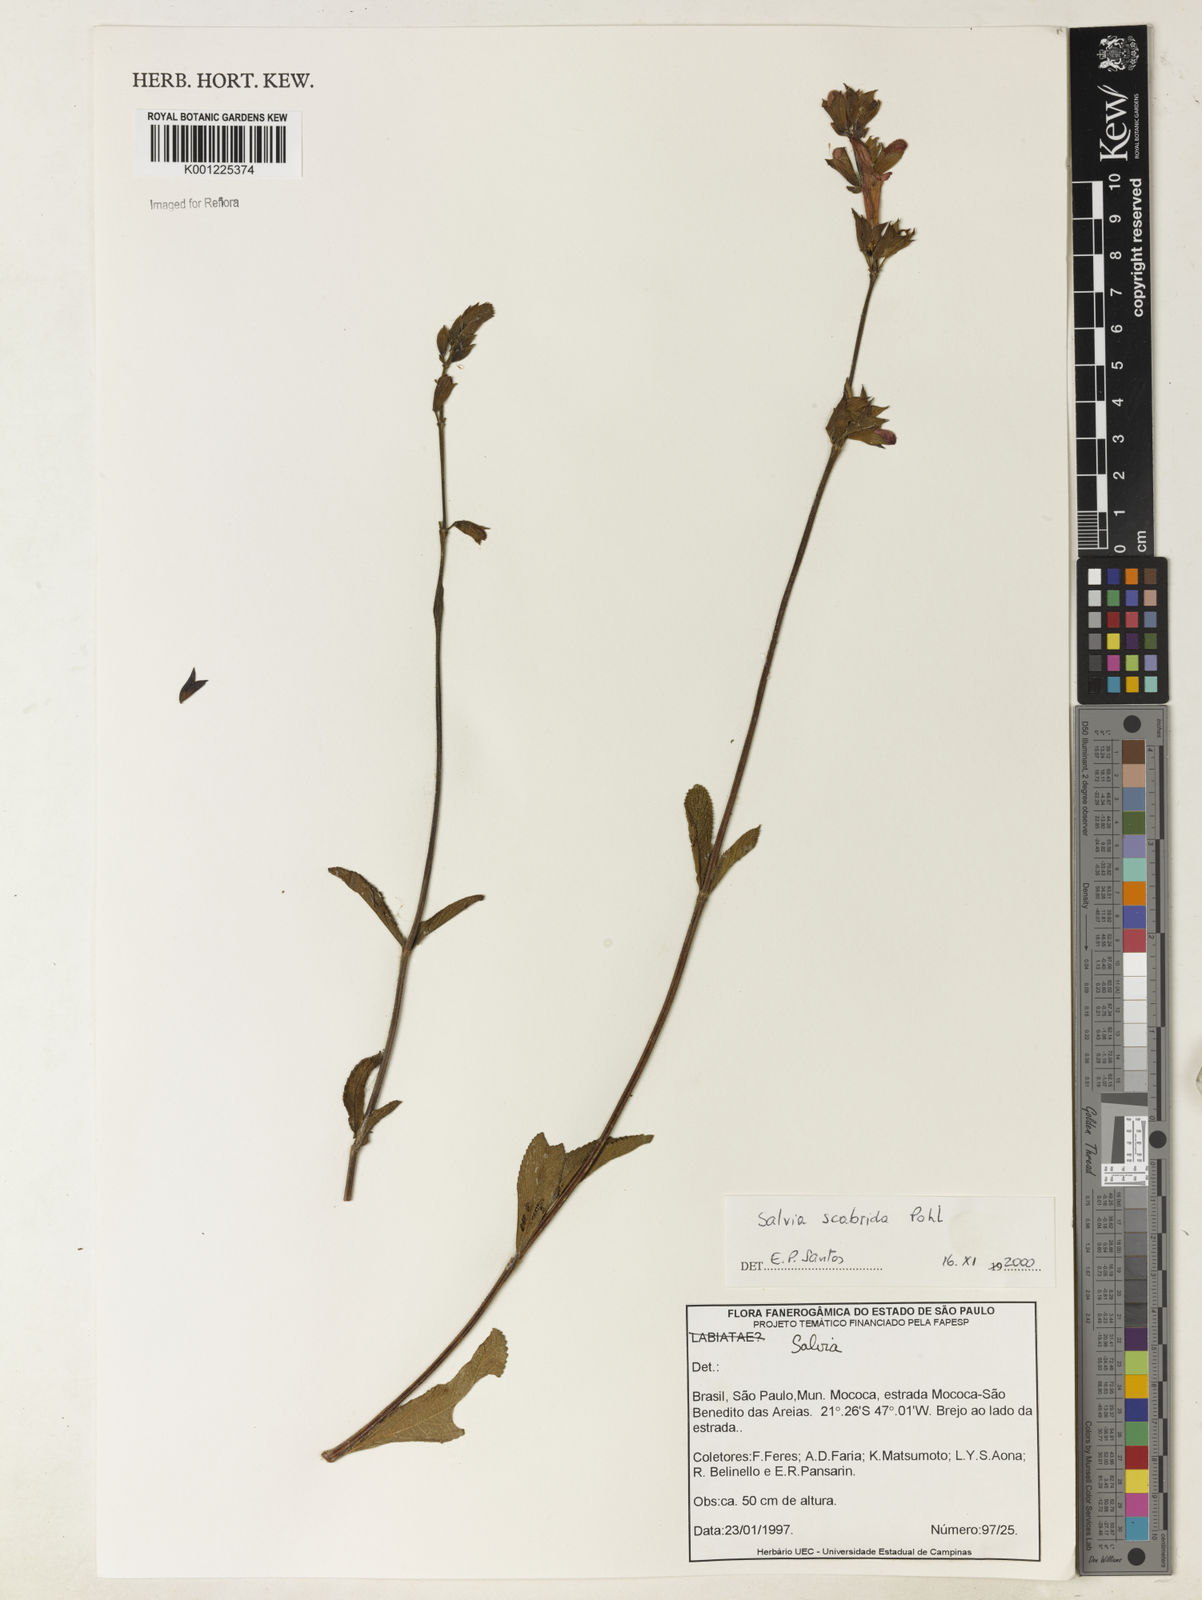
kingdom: Plantae
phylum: Tracheophyta
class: Magnoliopsida
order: Lamiales
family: Lamiaceae
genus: Salvia
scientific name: Salvia scabrida
